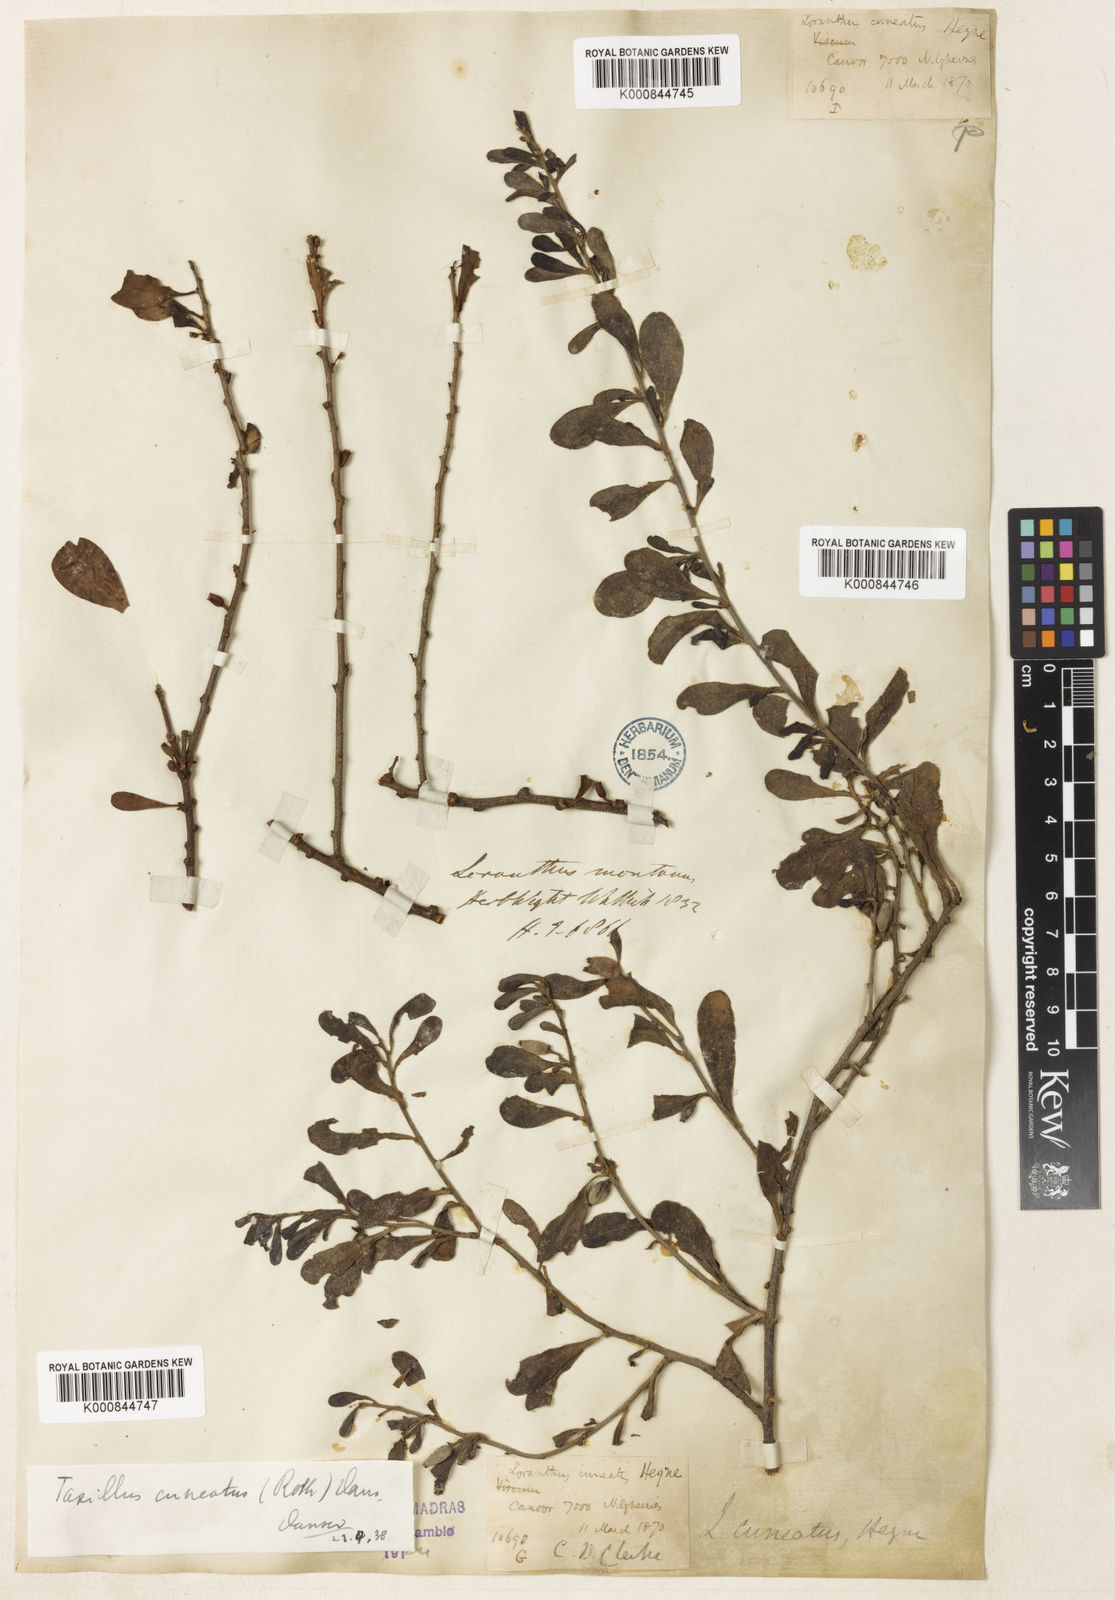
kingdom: Plantae
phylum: Tracheophyta
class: Magnoliopsida
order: Santalales
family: Loranthaceae
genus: Taxillus
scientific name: Taxillus cuneatus
